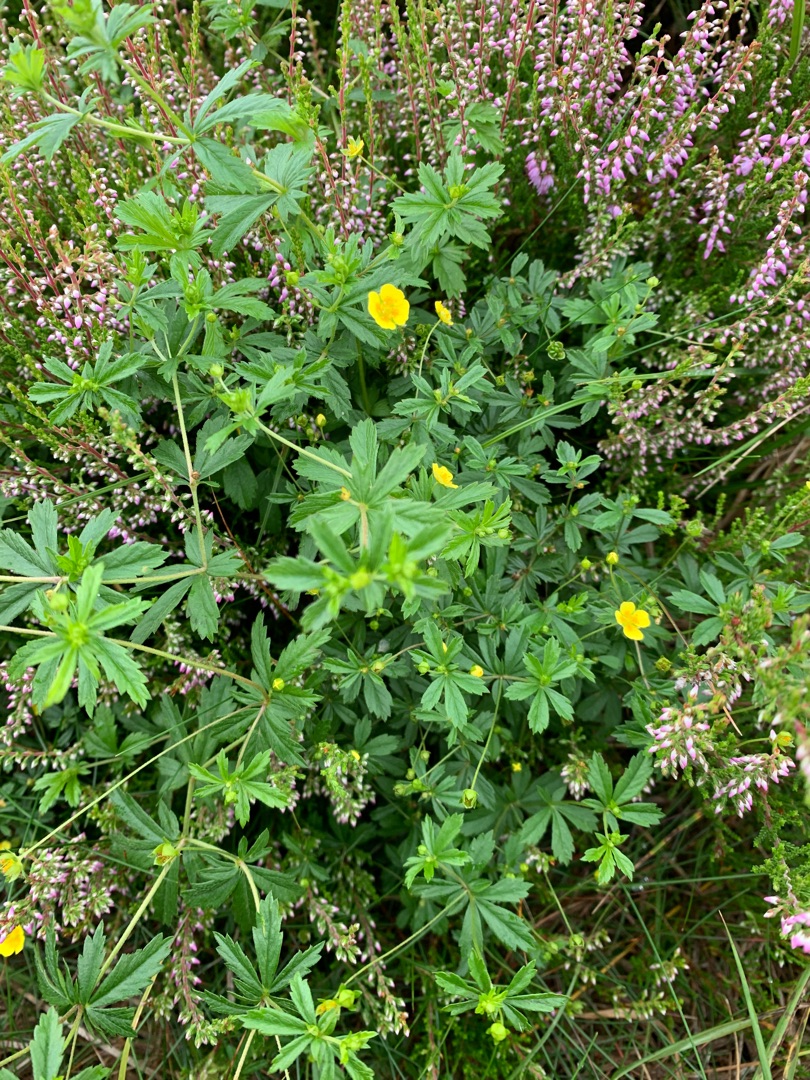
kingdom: Plantae
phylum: Tracheophyta
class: Magnoliopsida
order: Rosales
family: Rosaceae
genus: Potentilla
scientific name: Potentilla erecta
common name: Tormentil
